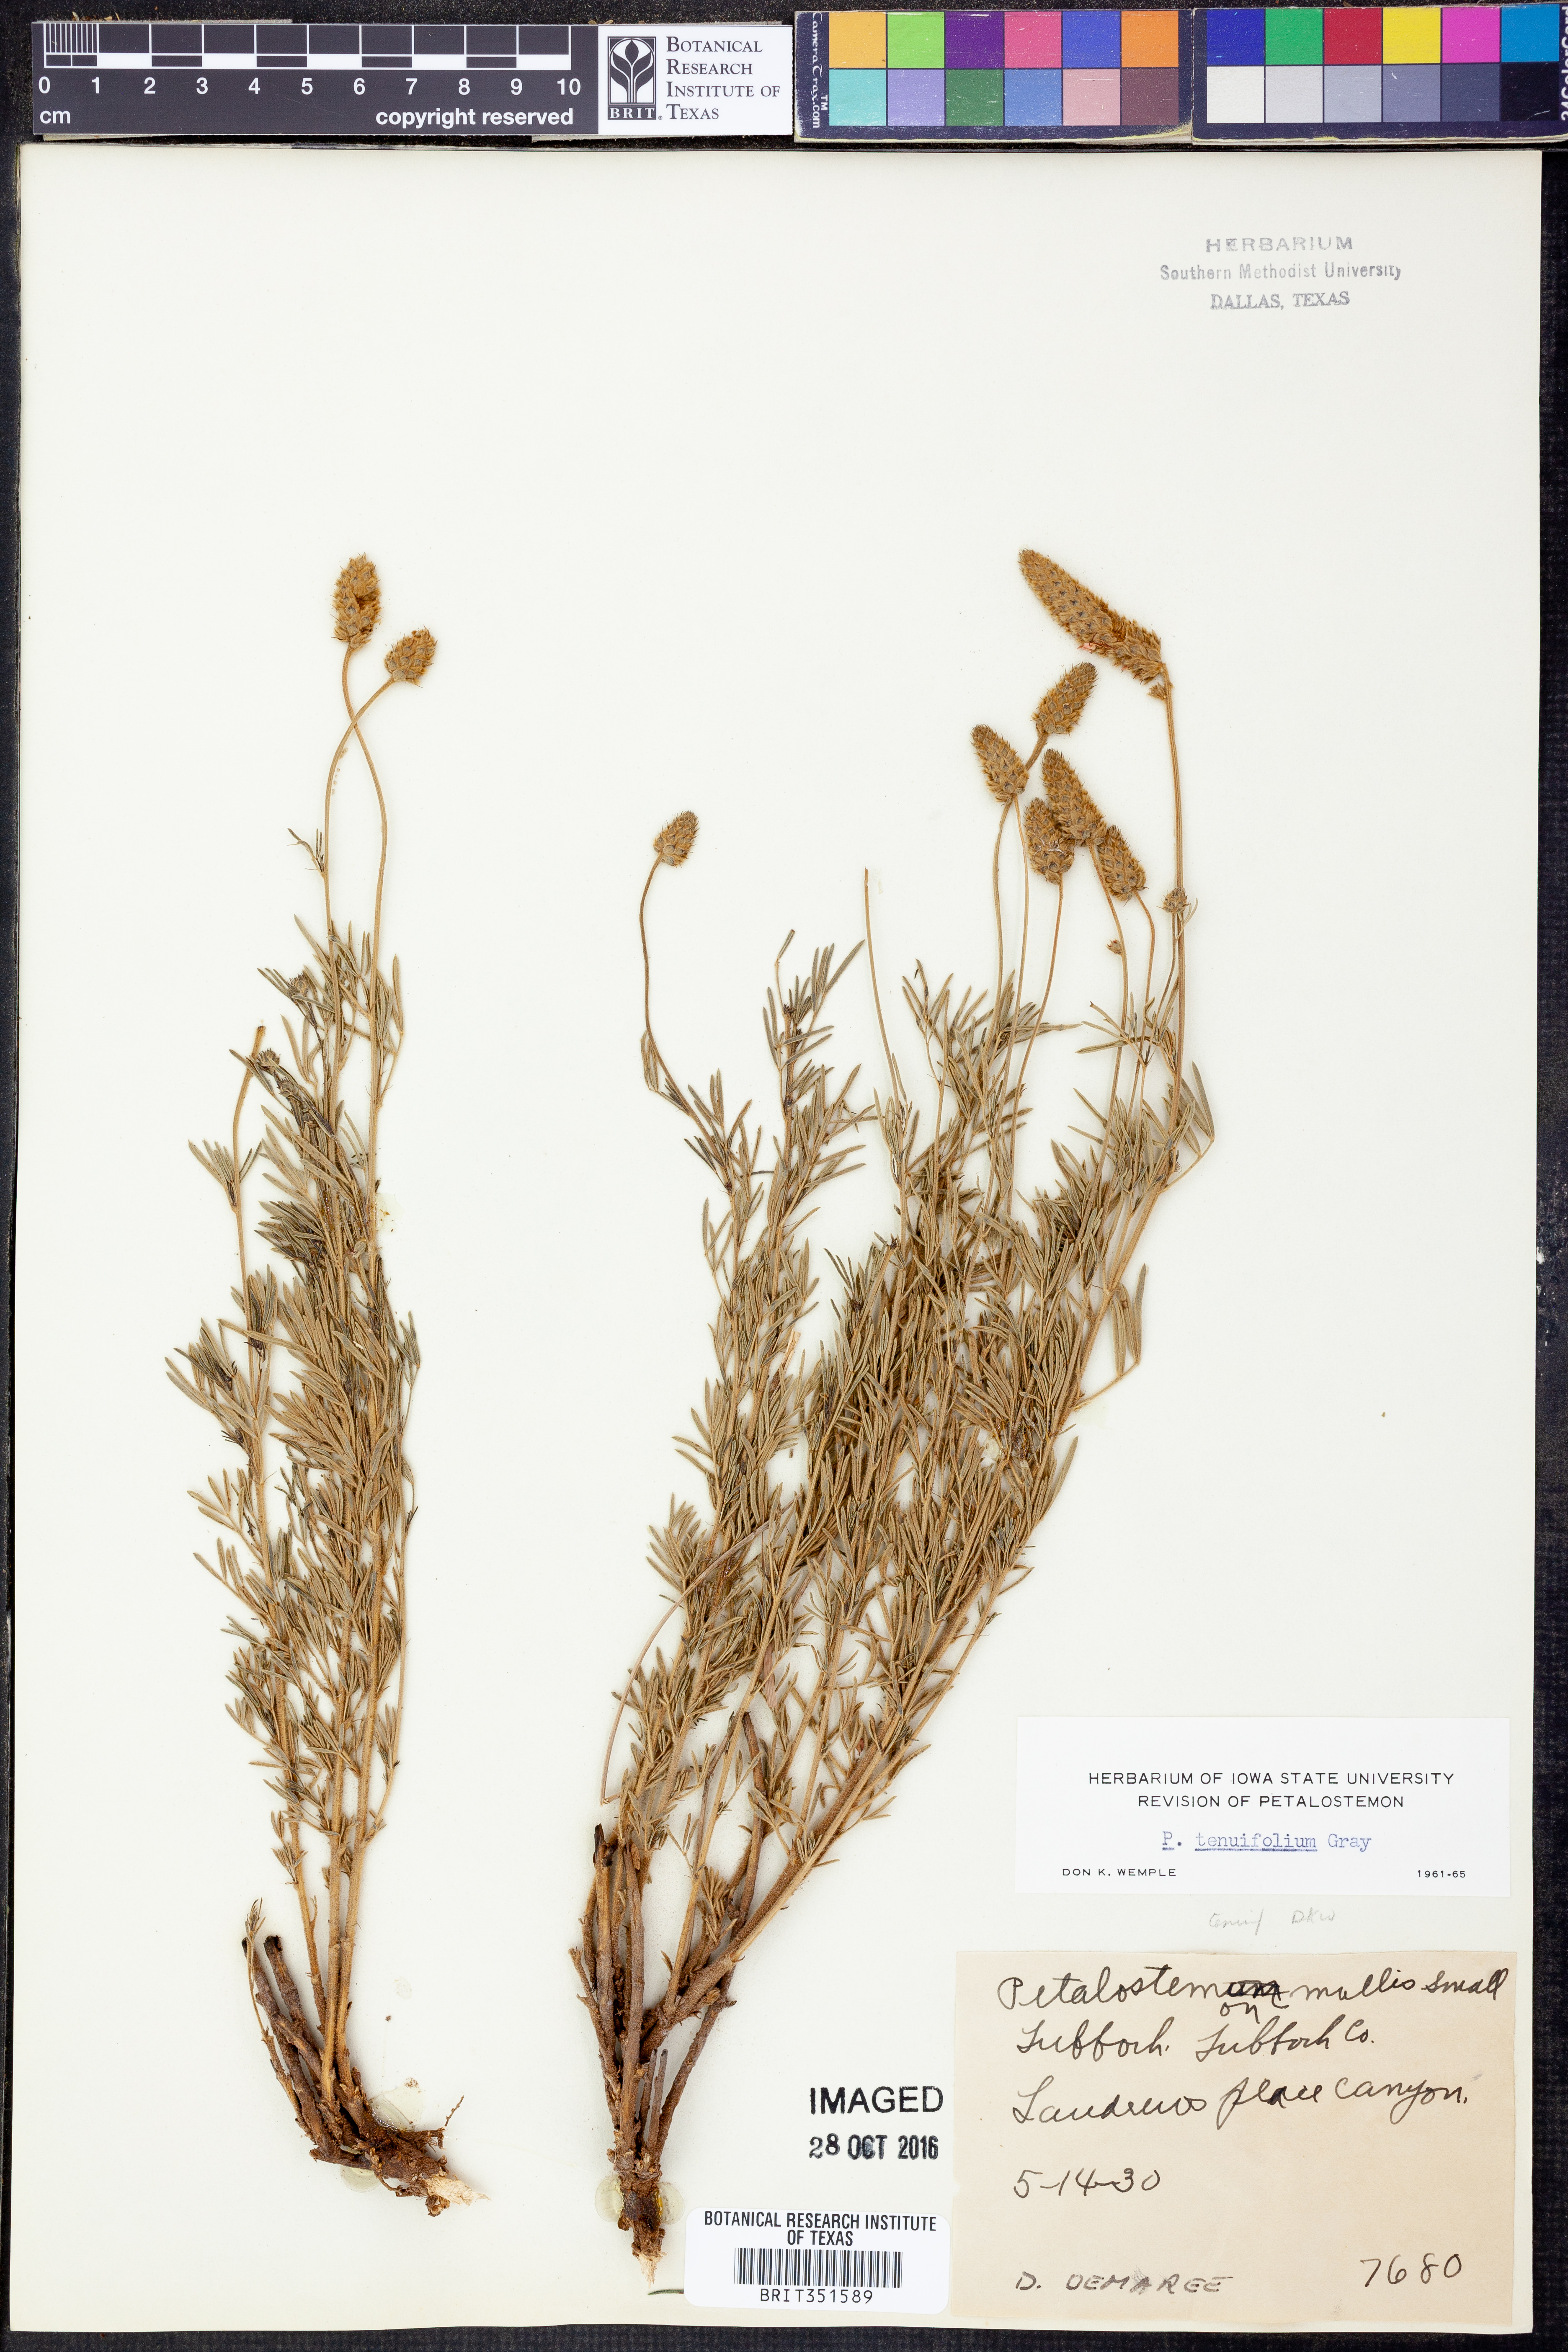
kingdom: Plantae
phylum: Tracheophyta
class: Magnoliopsida
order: Fabales
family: Fabaceae
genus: Dalea
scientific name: Dalea tenuifolia
